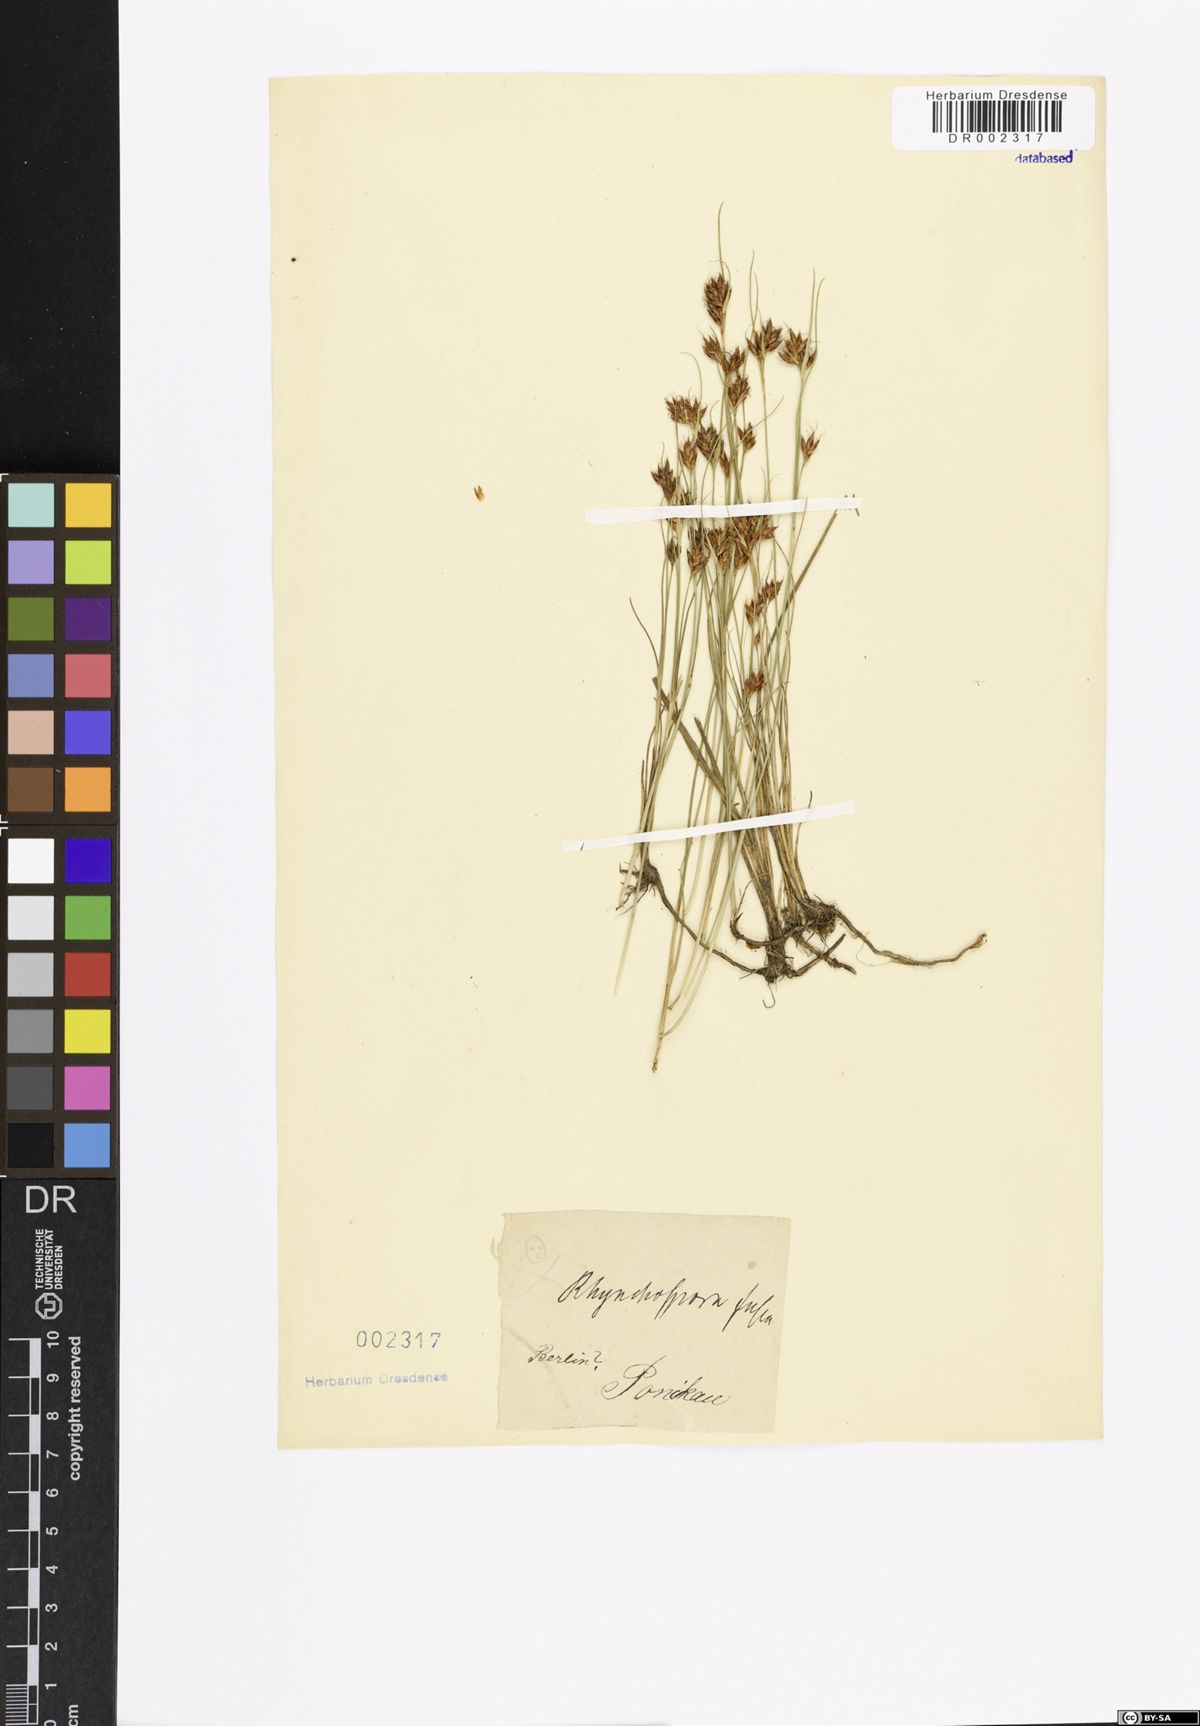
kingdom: Plantae
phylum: Tracheophyta
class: Liliopsida
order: Poales
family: Cyperaceae
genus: Rhynchospora
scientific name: Rhynchospora fusca
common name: Brown beak-sedge
